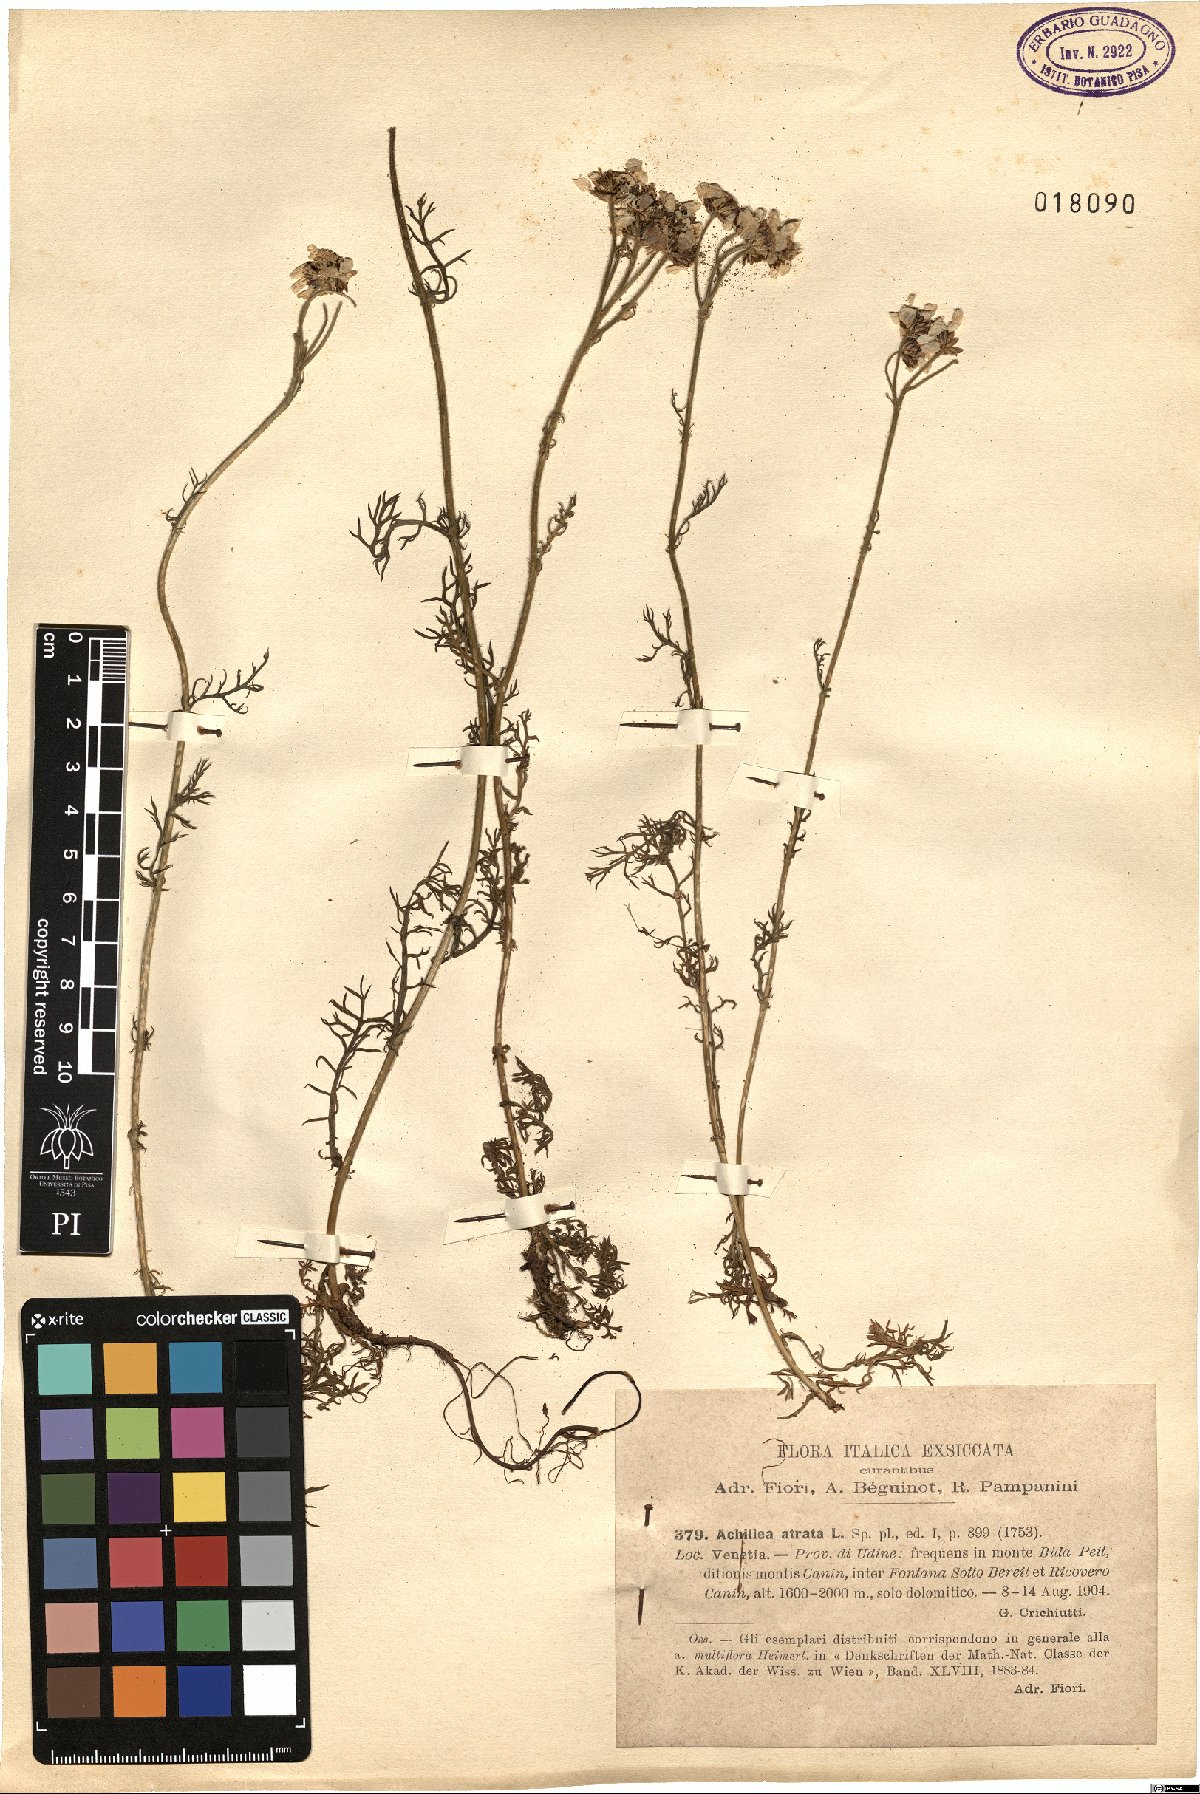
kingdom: Plantae
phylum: Tracheophyta
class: Magnoliopsida
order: Asterales
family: Asteraceae
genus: Achillea
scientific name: Achillea atrata
